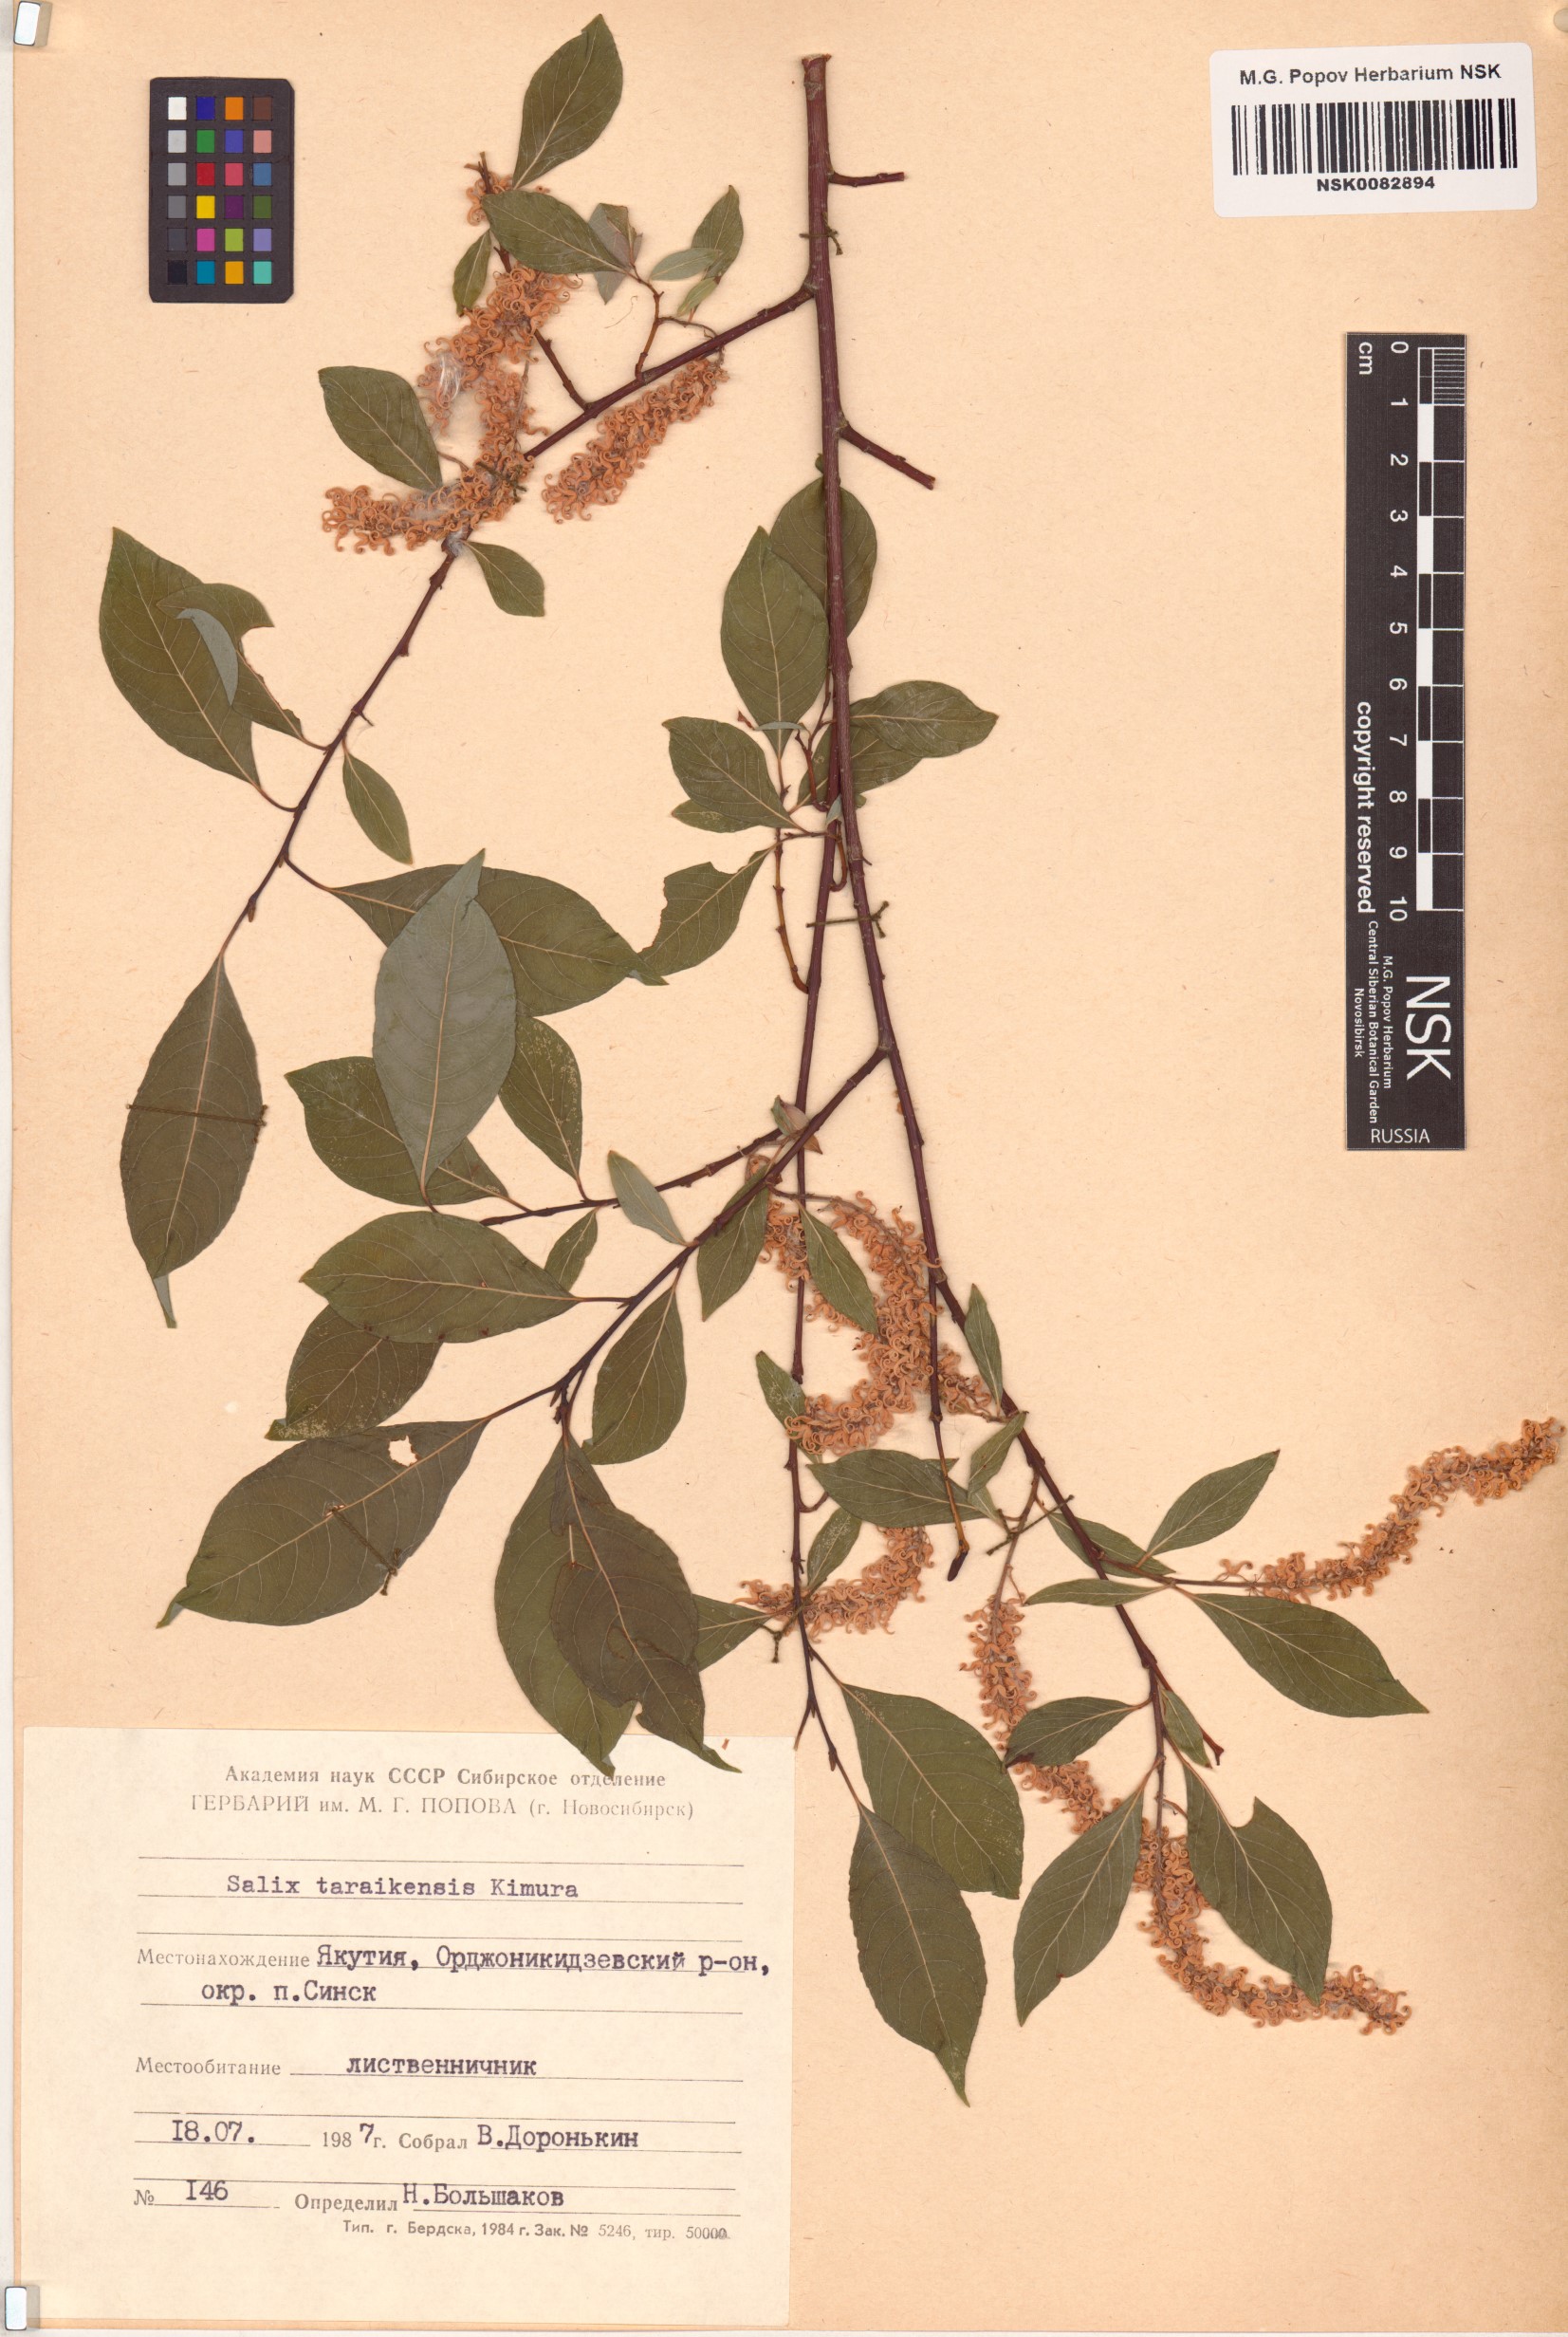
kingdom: Plantae
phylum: Tracheophyta
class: Magnoliopsida
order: Malpighiales
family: Salicaceae
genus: Salix
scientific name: Salix taraikensis
